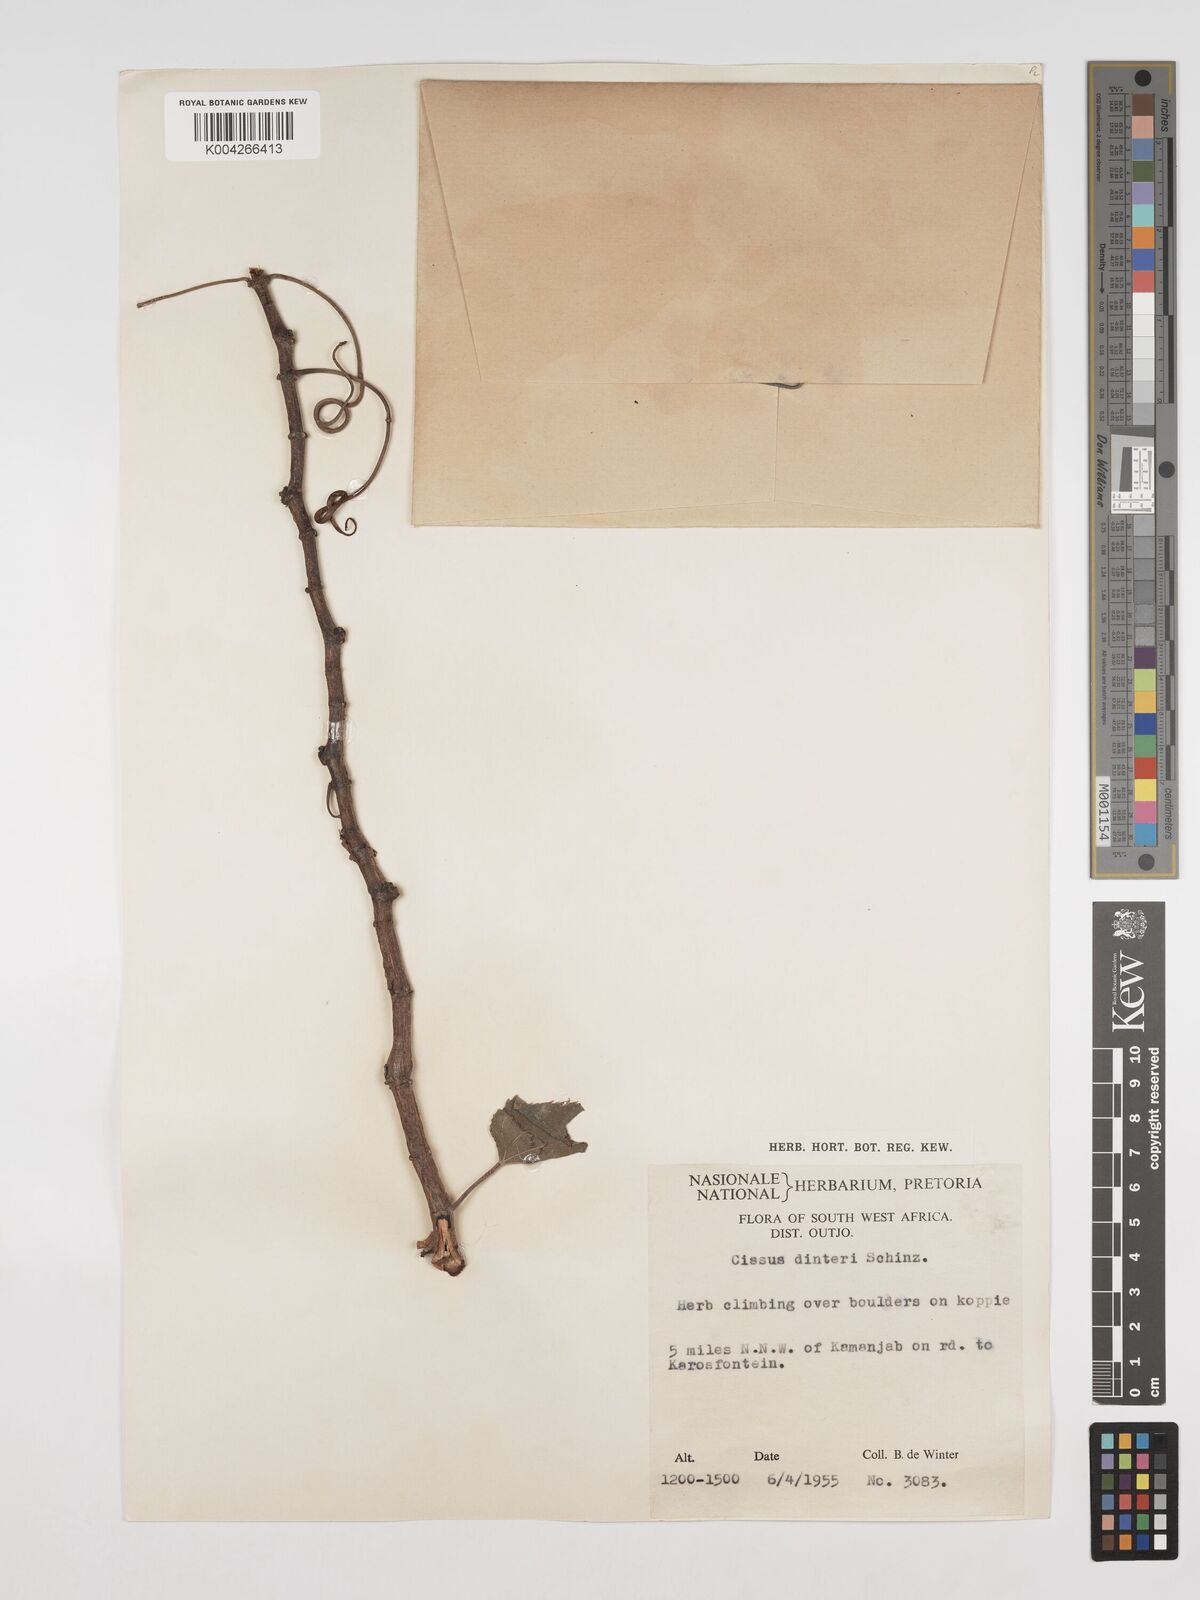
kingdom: Plantae
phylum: Tracheophyta
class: Magnoliopsida
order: Vitales
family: Vitaceae
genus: Cissus
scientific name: Cissus nymphaeifolia
